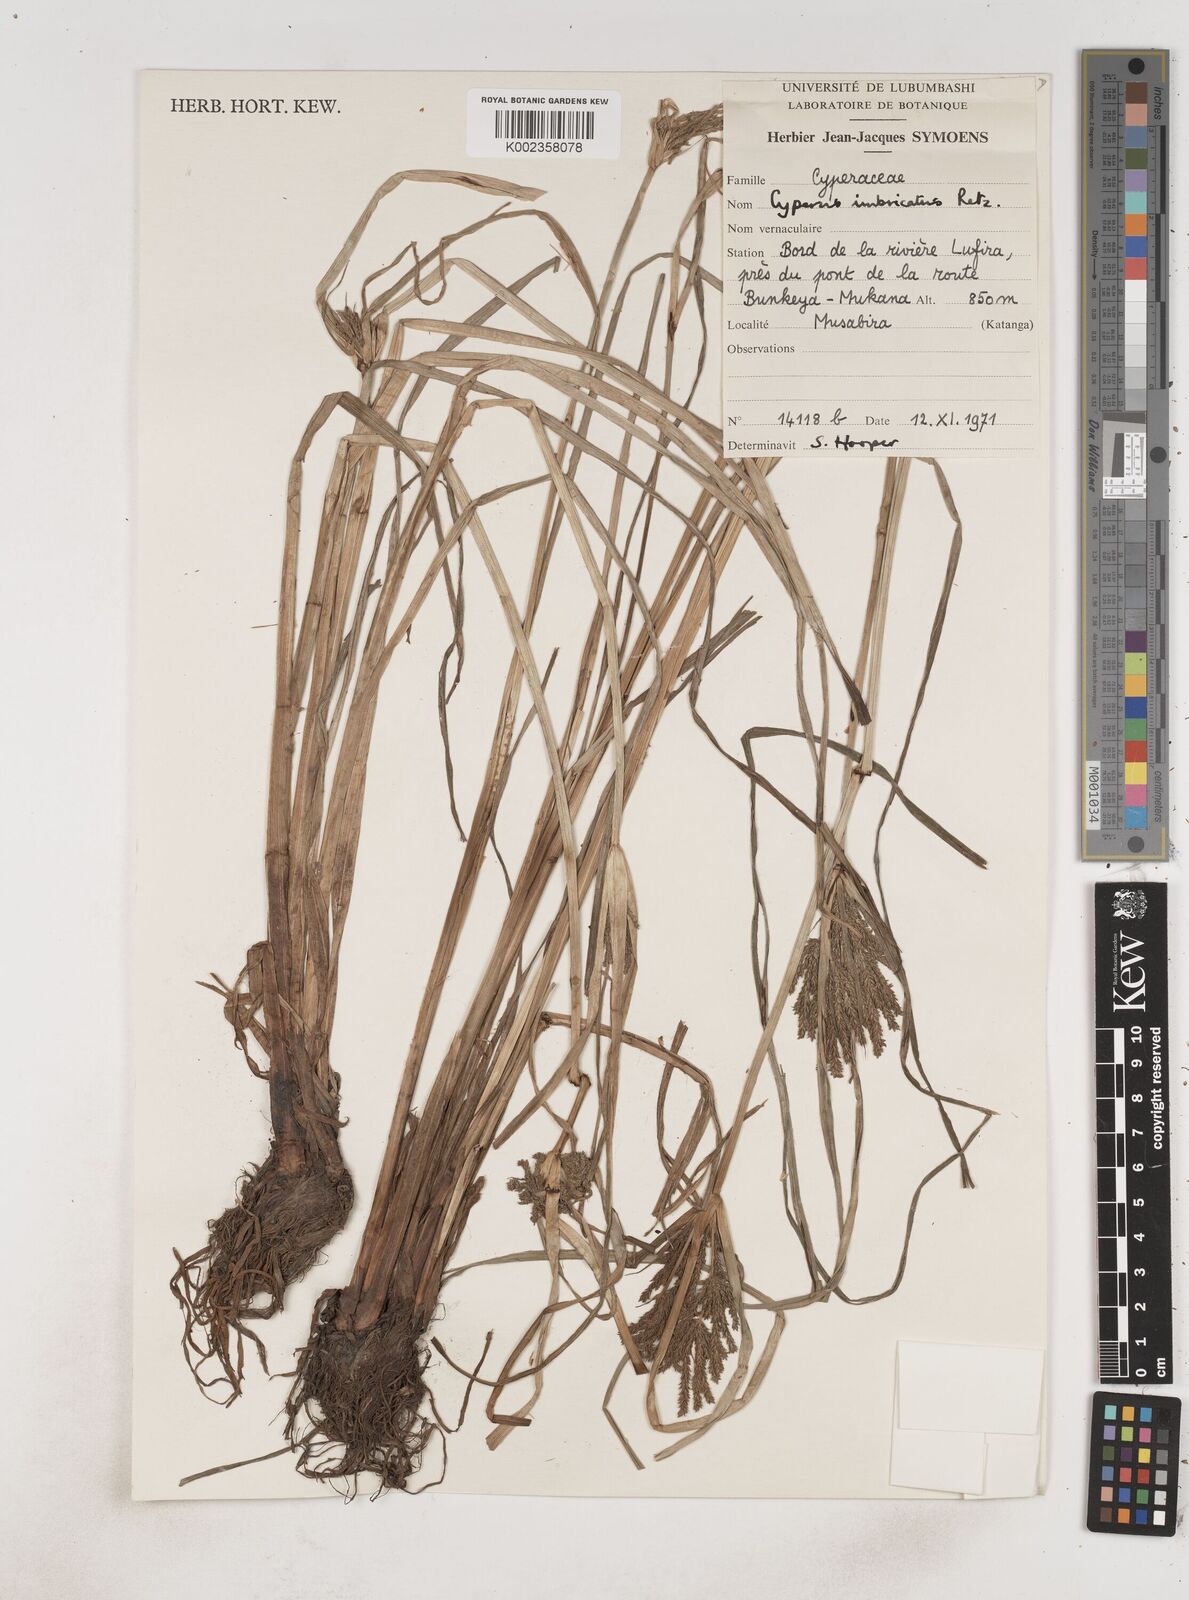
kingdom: Plantae
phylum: Tracheophyta
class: Liliopsida
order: Poales
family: Cyperaceae
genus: Cyperus
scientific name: Cyperus imbricatus
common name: Shingle flatsedge
